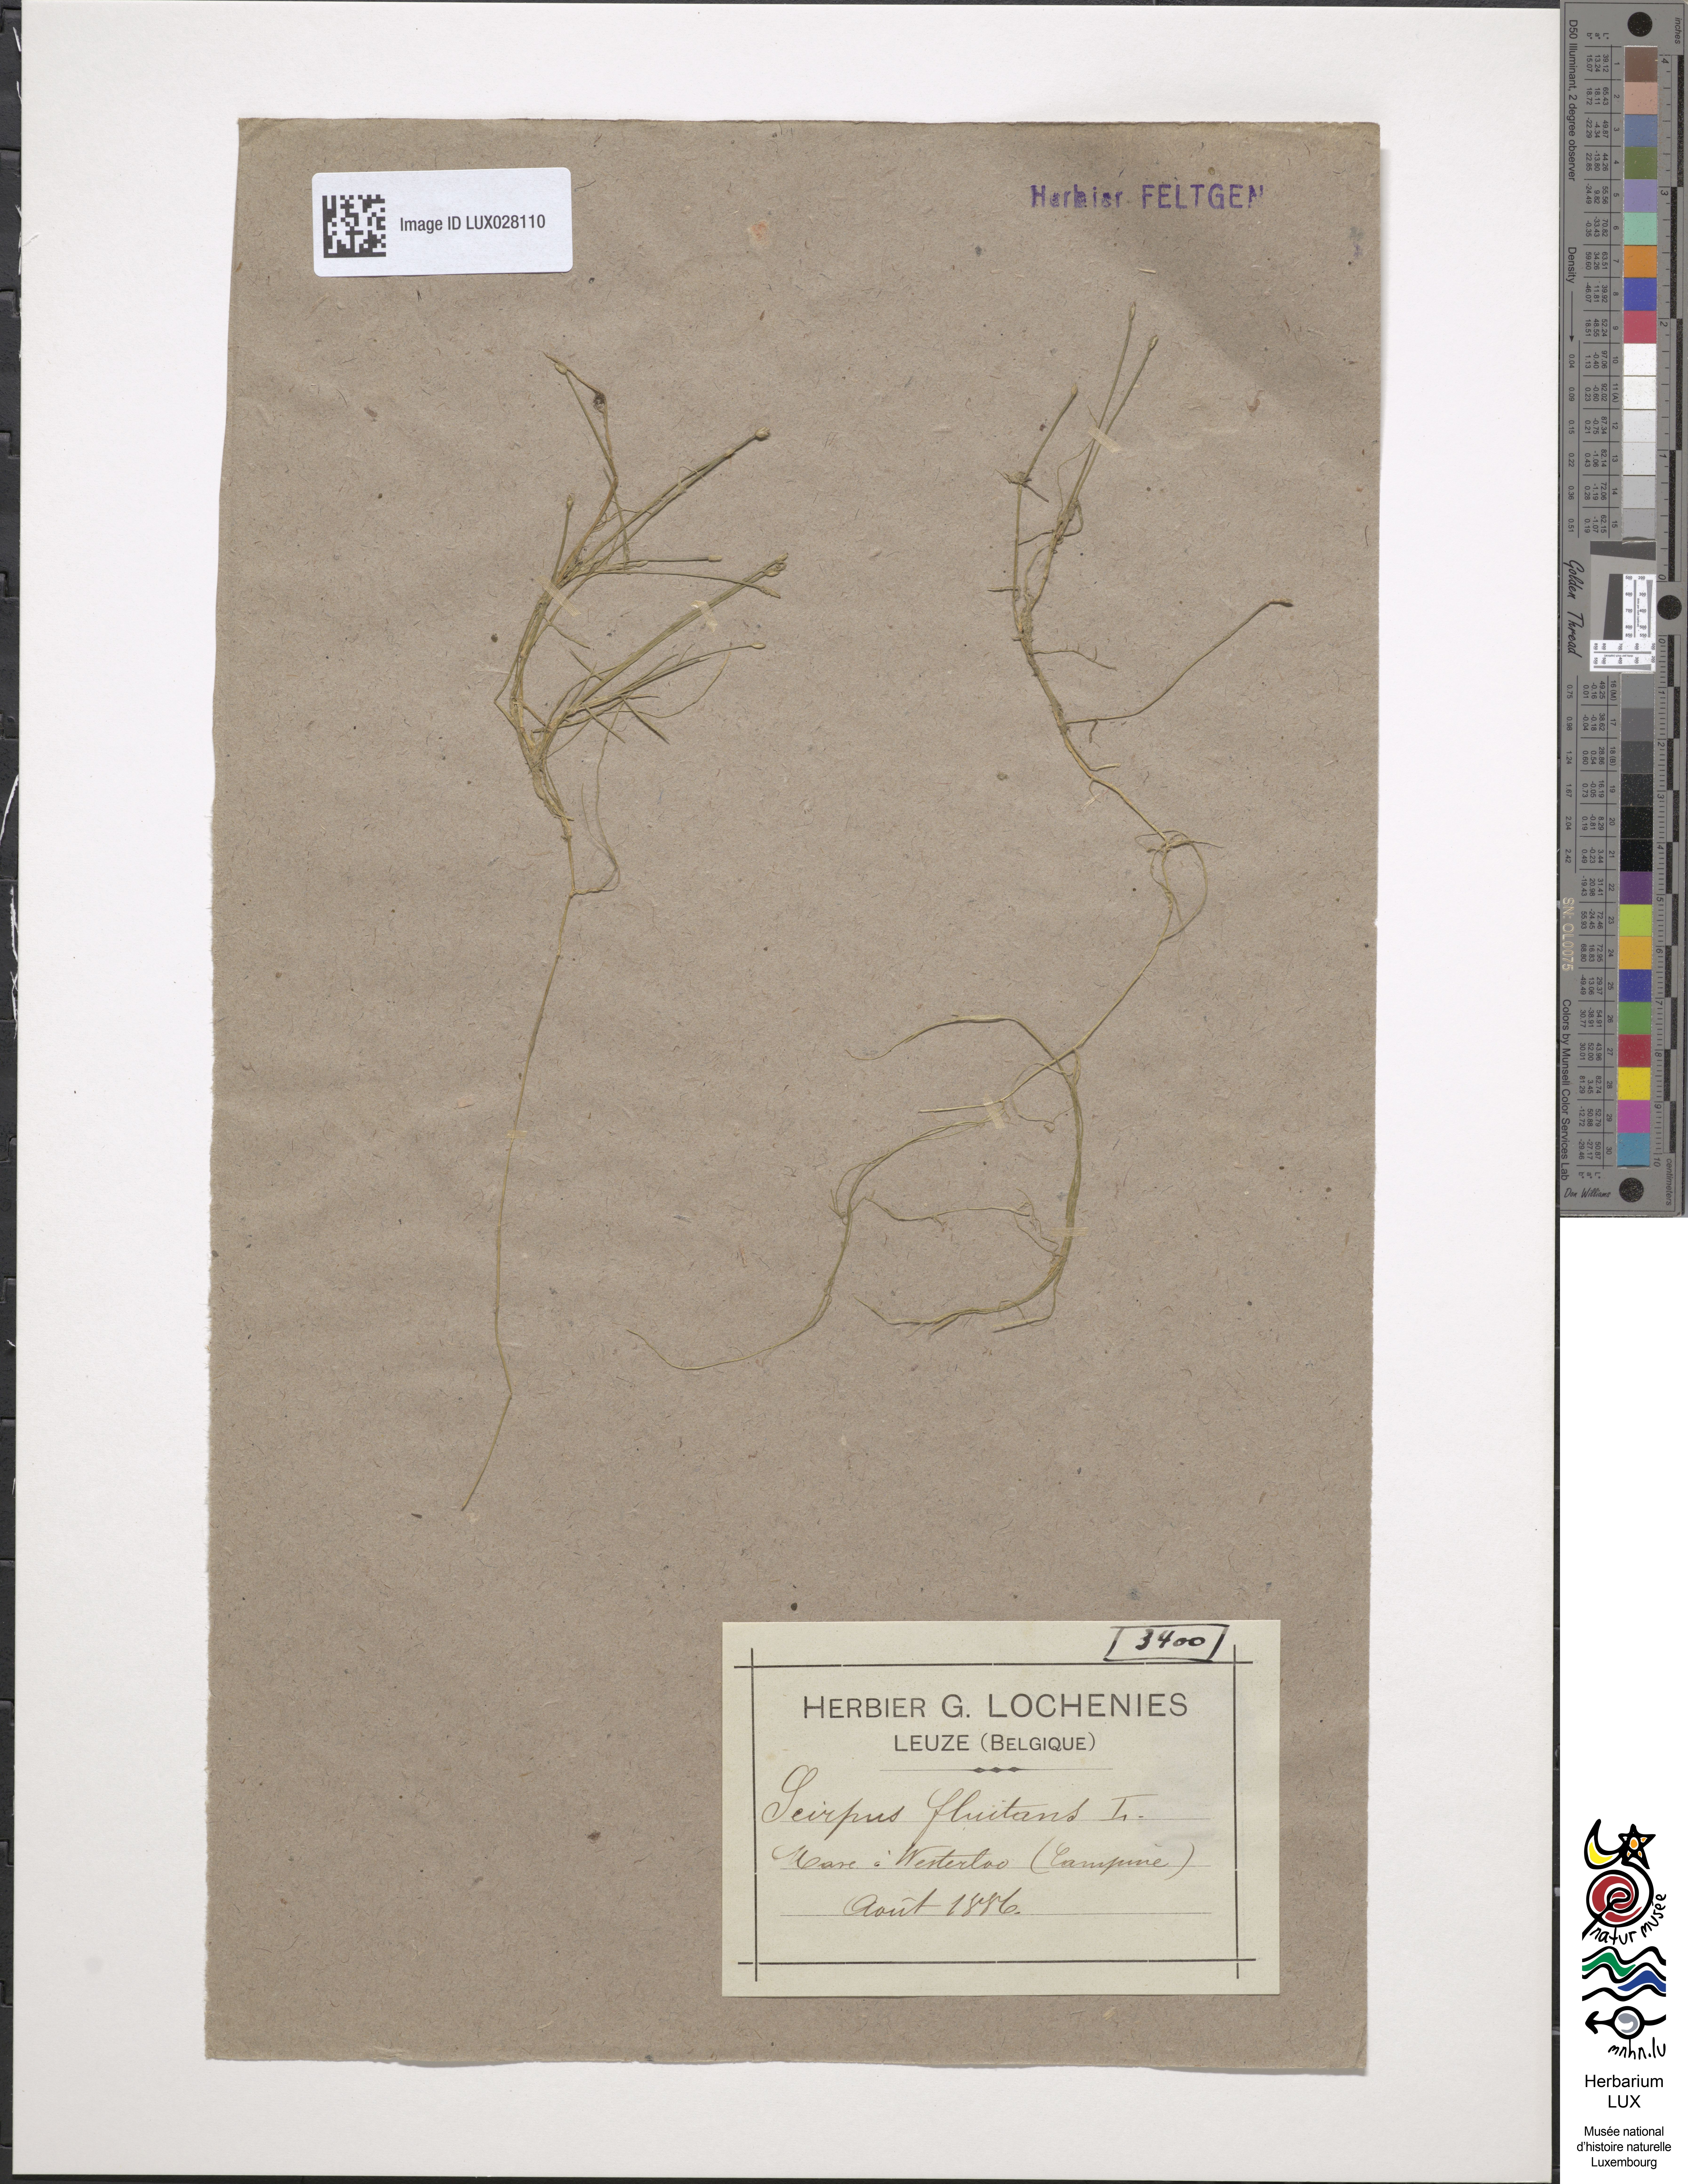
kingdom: Plantae
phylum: Tracheophyta
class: Liliopsida
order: Poales
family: Cyperaceae
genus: Isolepis
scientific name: Isolepis fluitans
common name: Floating club-rush
